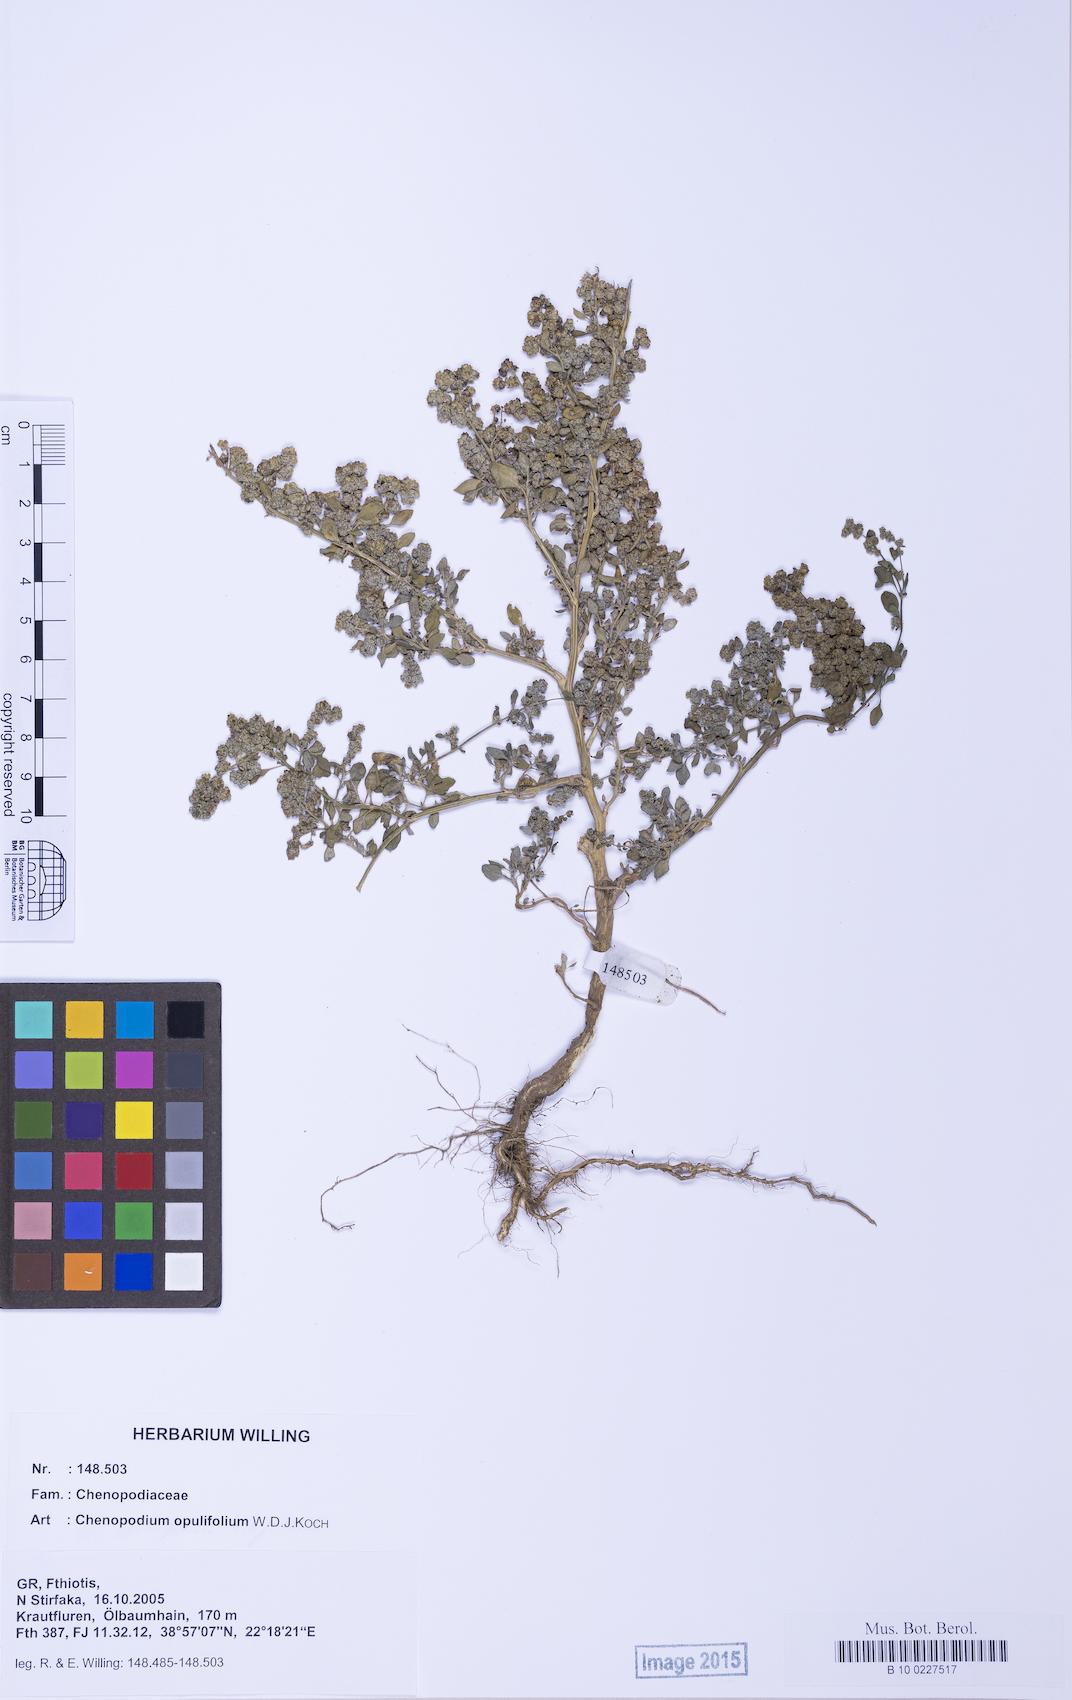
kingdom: Plantae
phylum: Tracheophyta
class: Magnoliopsida
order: Caryophyllales
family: Amaranthaceae
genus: Chenopodium
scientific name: Chenopodium opulifolium
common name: Grey goosefoot
